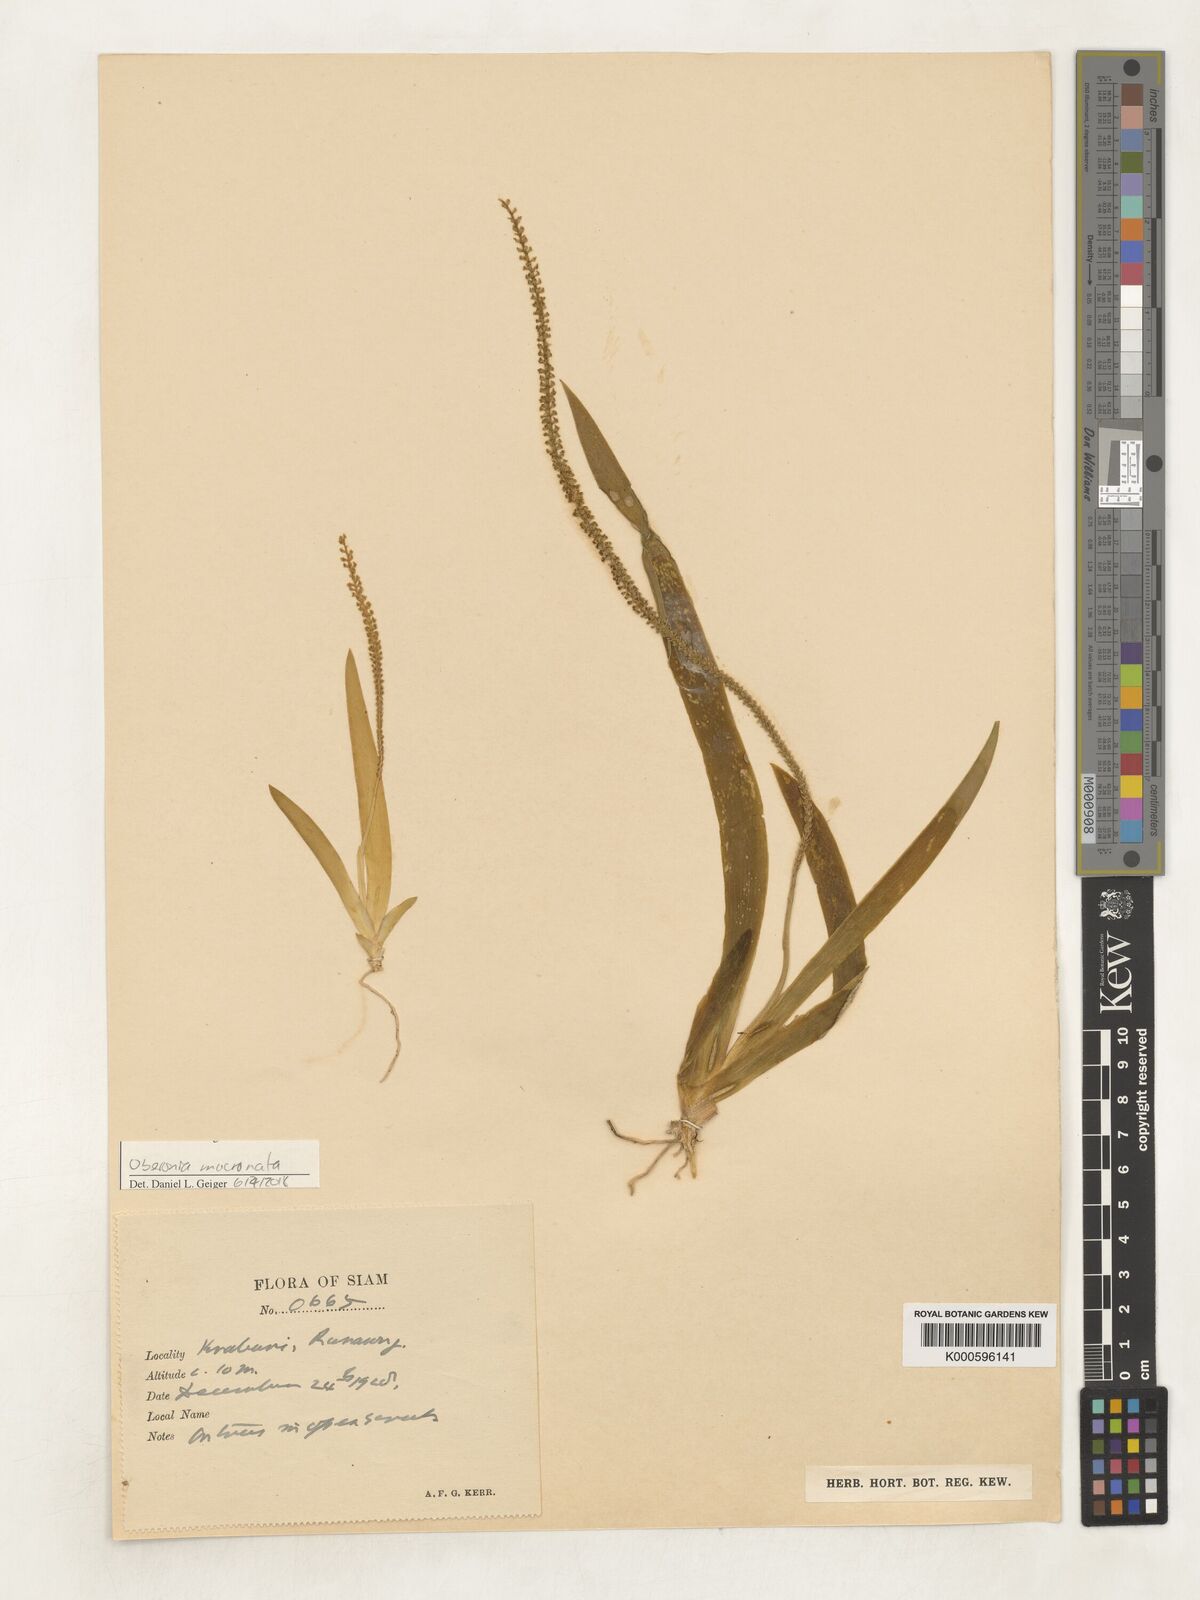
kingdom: Plantae
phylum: Tracheophyta
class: Liliopsida
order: Asparagales
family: Orchidaceae
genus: Oberonia
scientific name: Oberonia mucronata
